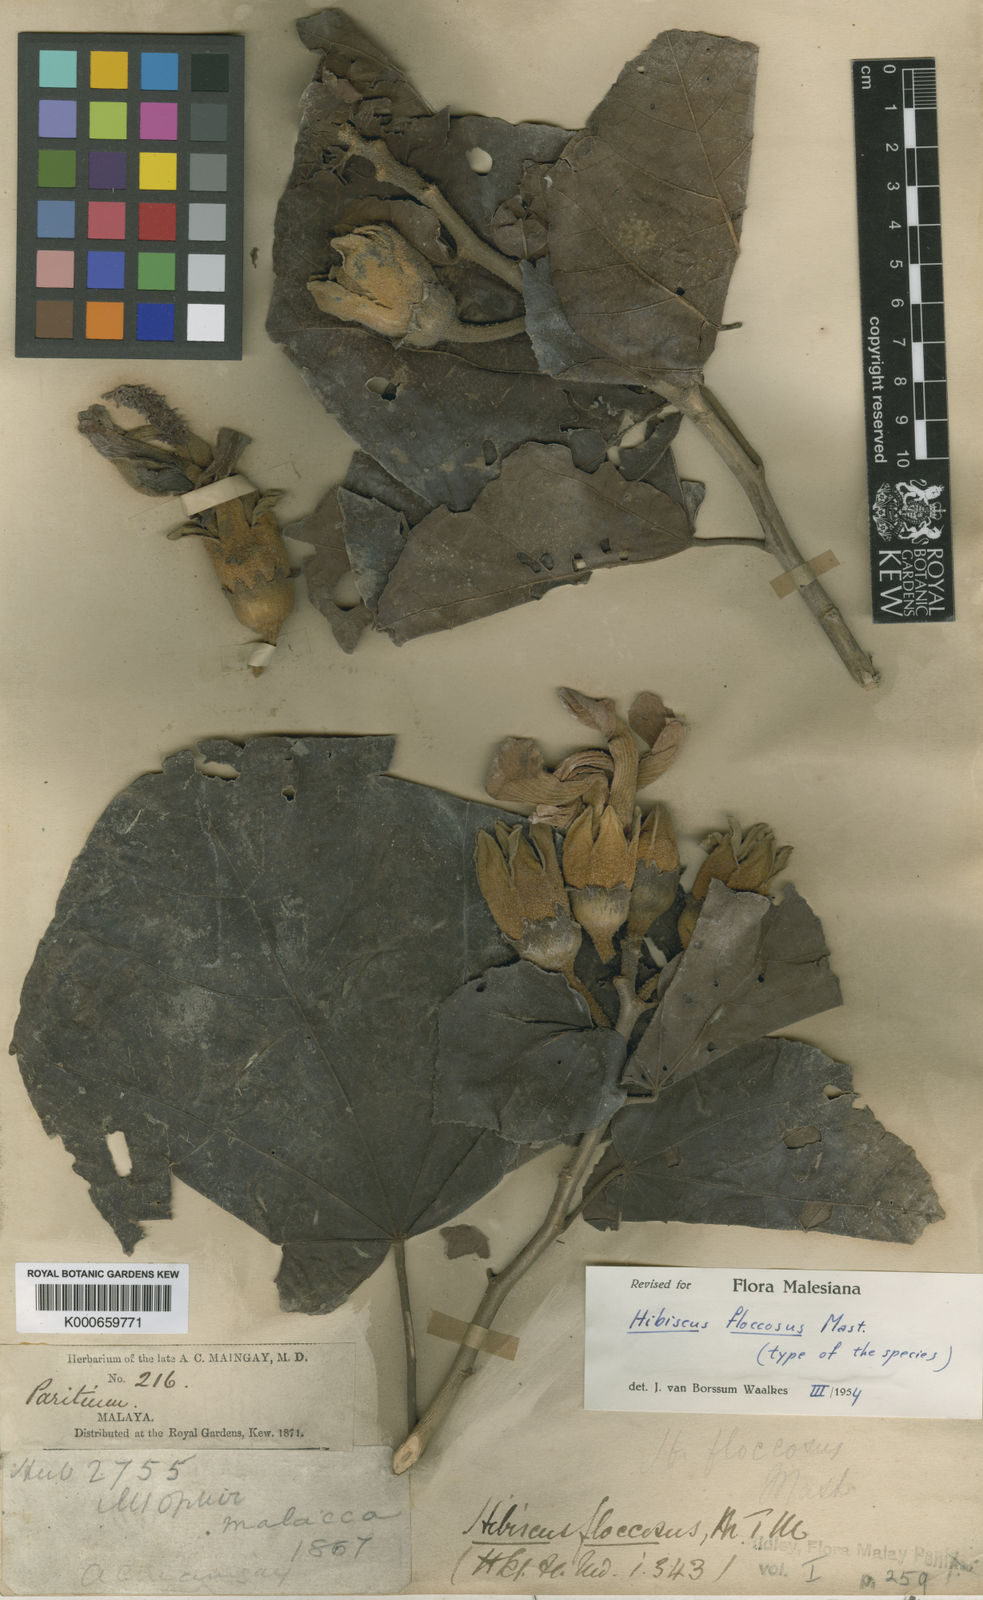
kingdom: Plantae
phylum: Tracheophyta
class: Magnoliopsida
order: Malvales
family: Malvaceae
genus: Hibiscus
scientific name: Hibiscus floccosus
